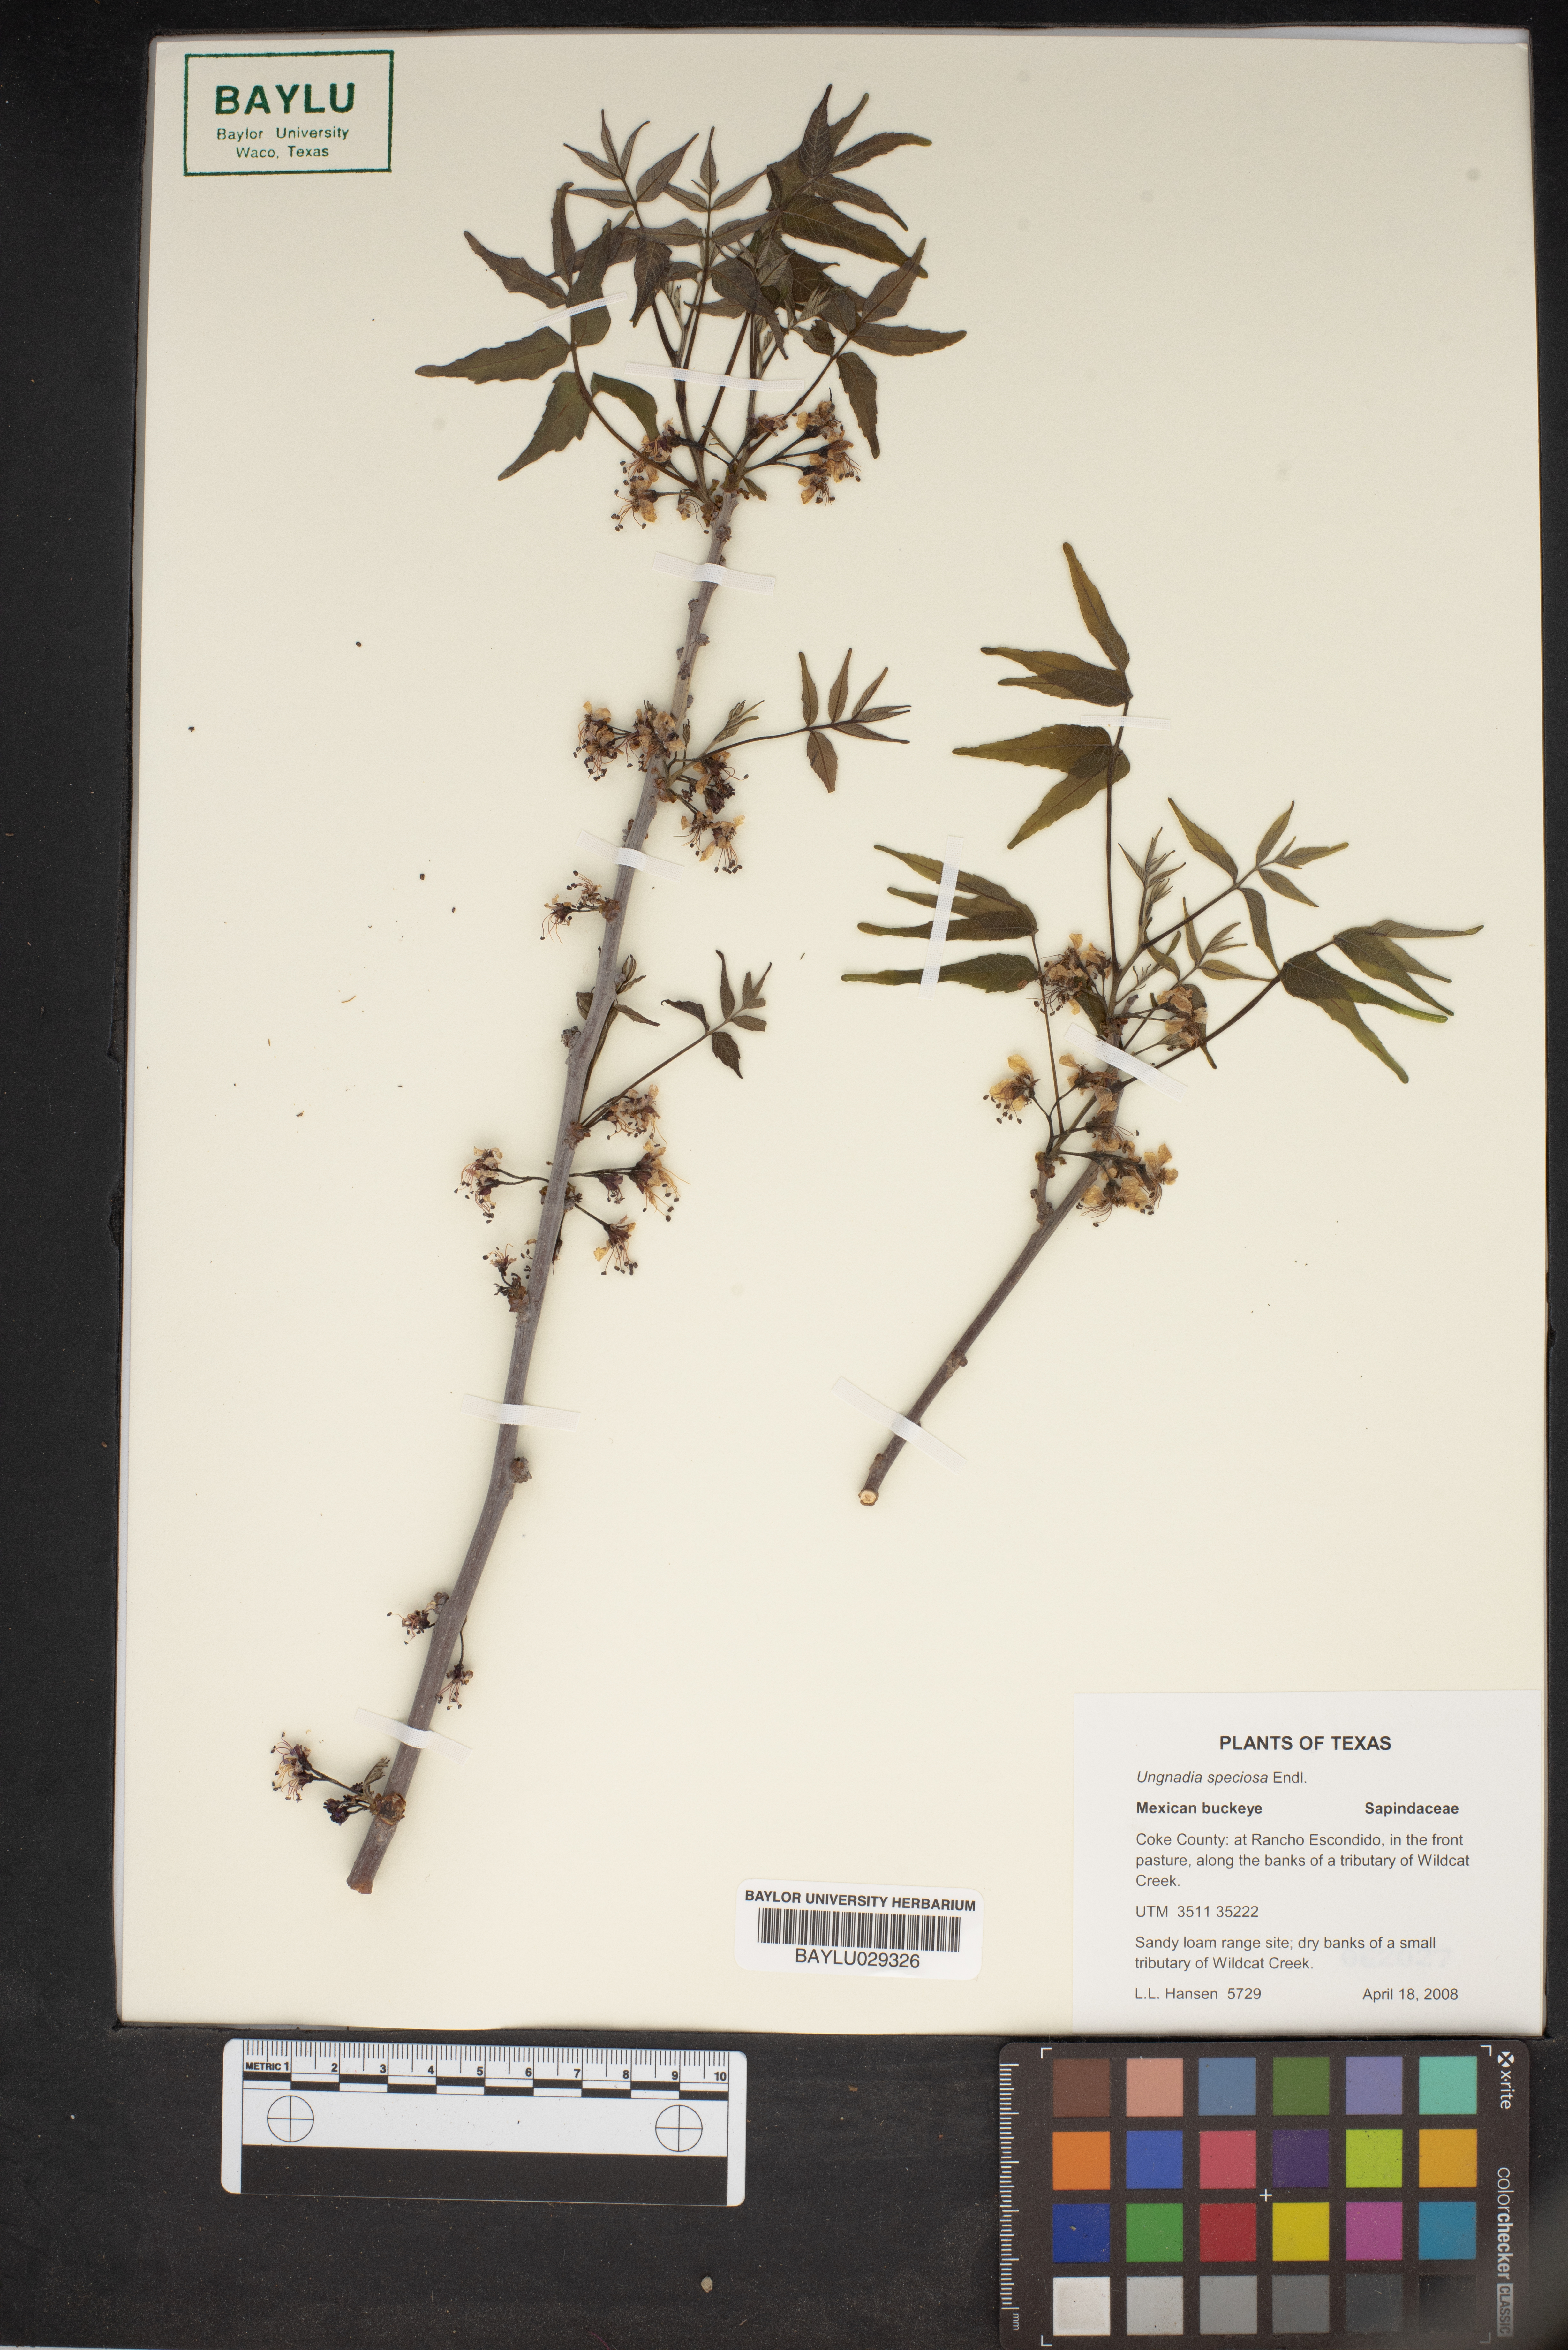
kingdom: Plantae
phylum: Tracheophyta
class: Magnoliopsida
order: Sapindales
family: Sapindaceae
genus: Ungnadia
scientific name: Ungnadia speciosa
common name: Texas-buckeye
